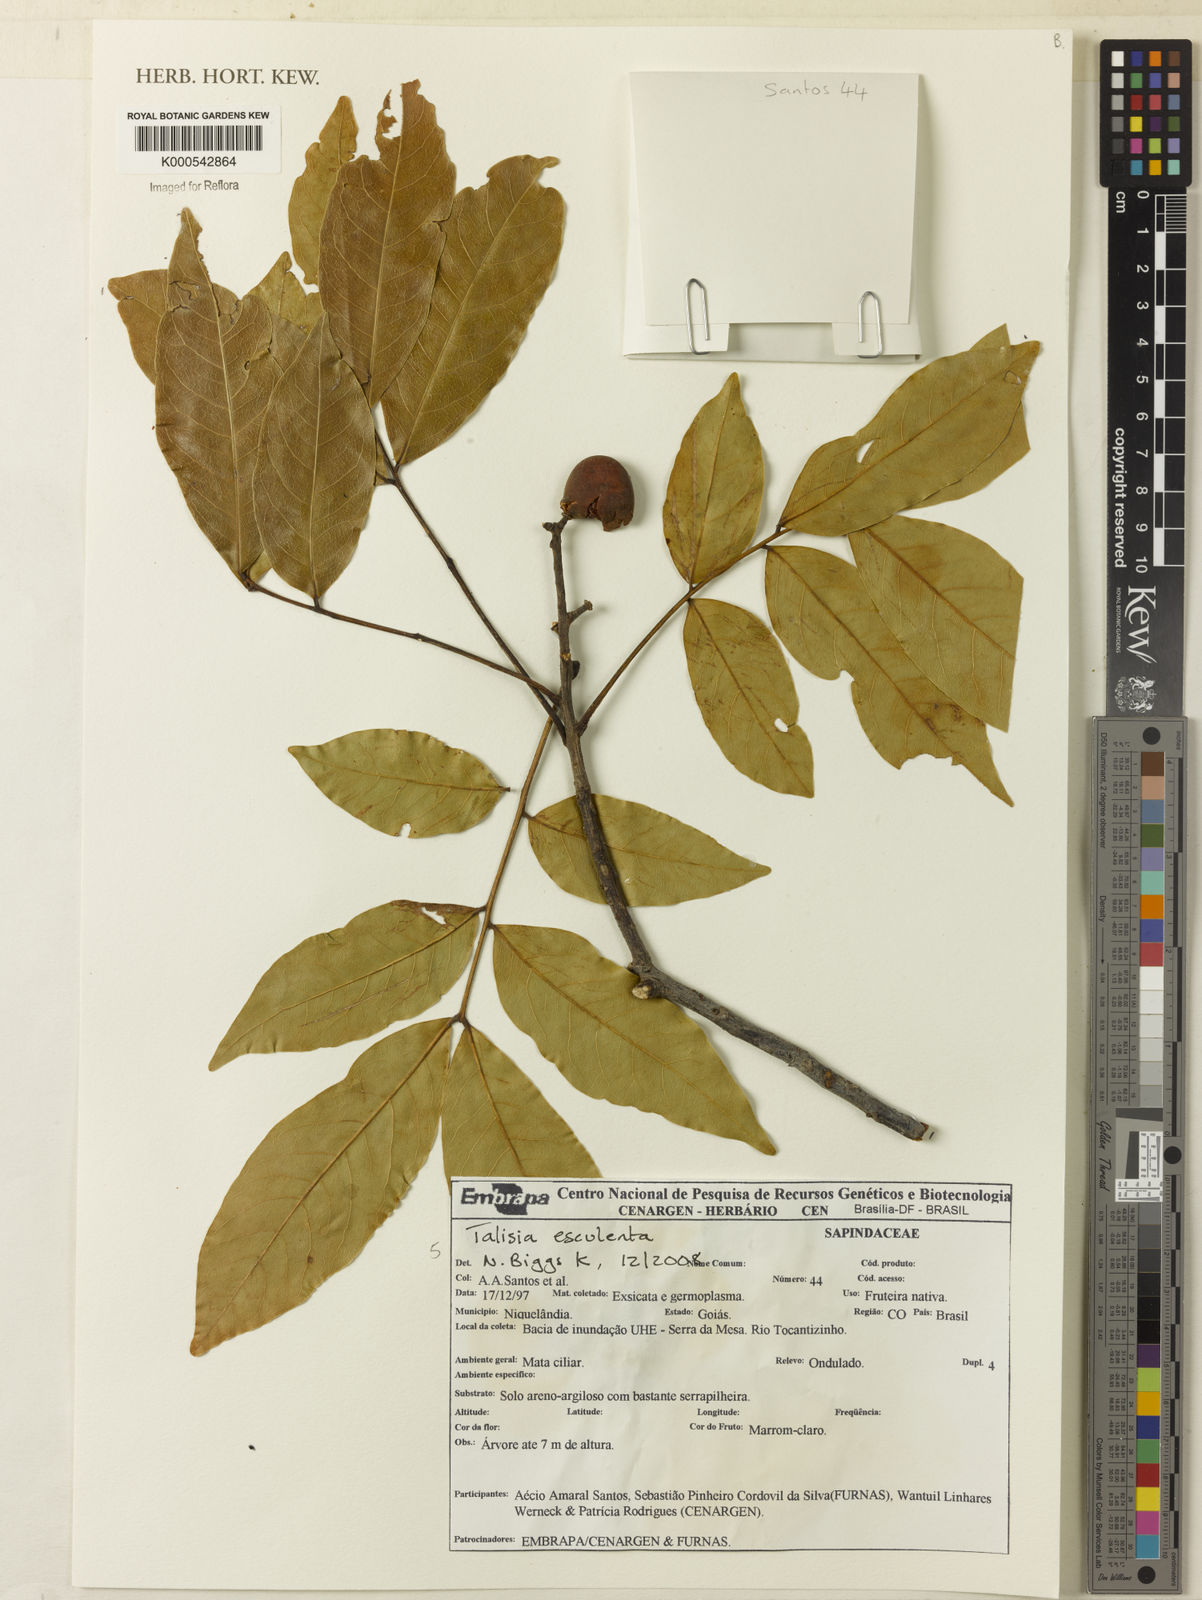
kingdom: Plantae
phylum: Tracheophyta
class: Magnoliopsida
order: Sapindales
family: Sapindaceae
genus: Talisia
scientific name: Talisia
